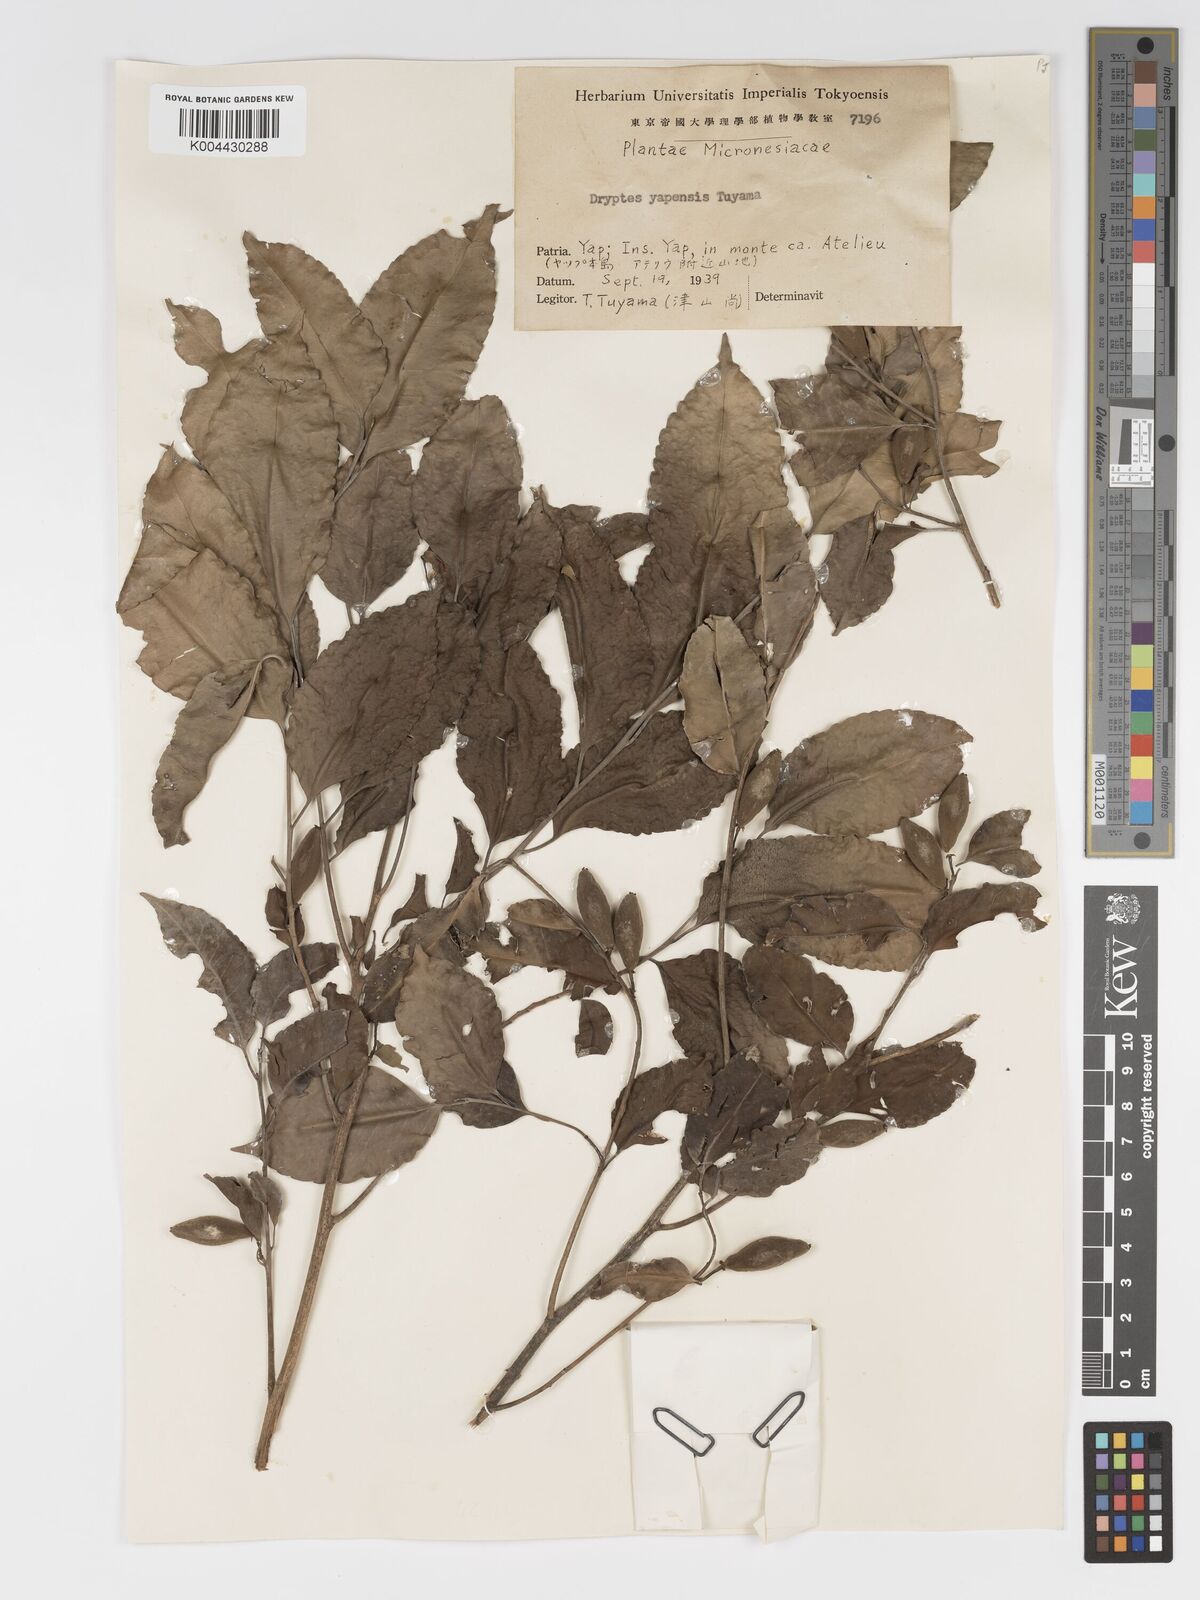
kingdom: Plantae
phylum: Tracheophyta
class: Magnoliopsida
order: Malpighiales
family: Putranjivaceae
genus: Drypetes
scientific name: Drypetes yapensis
